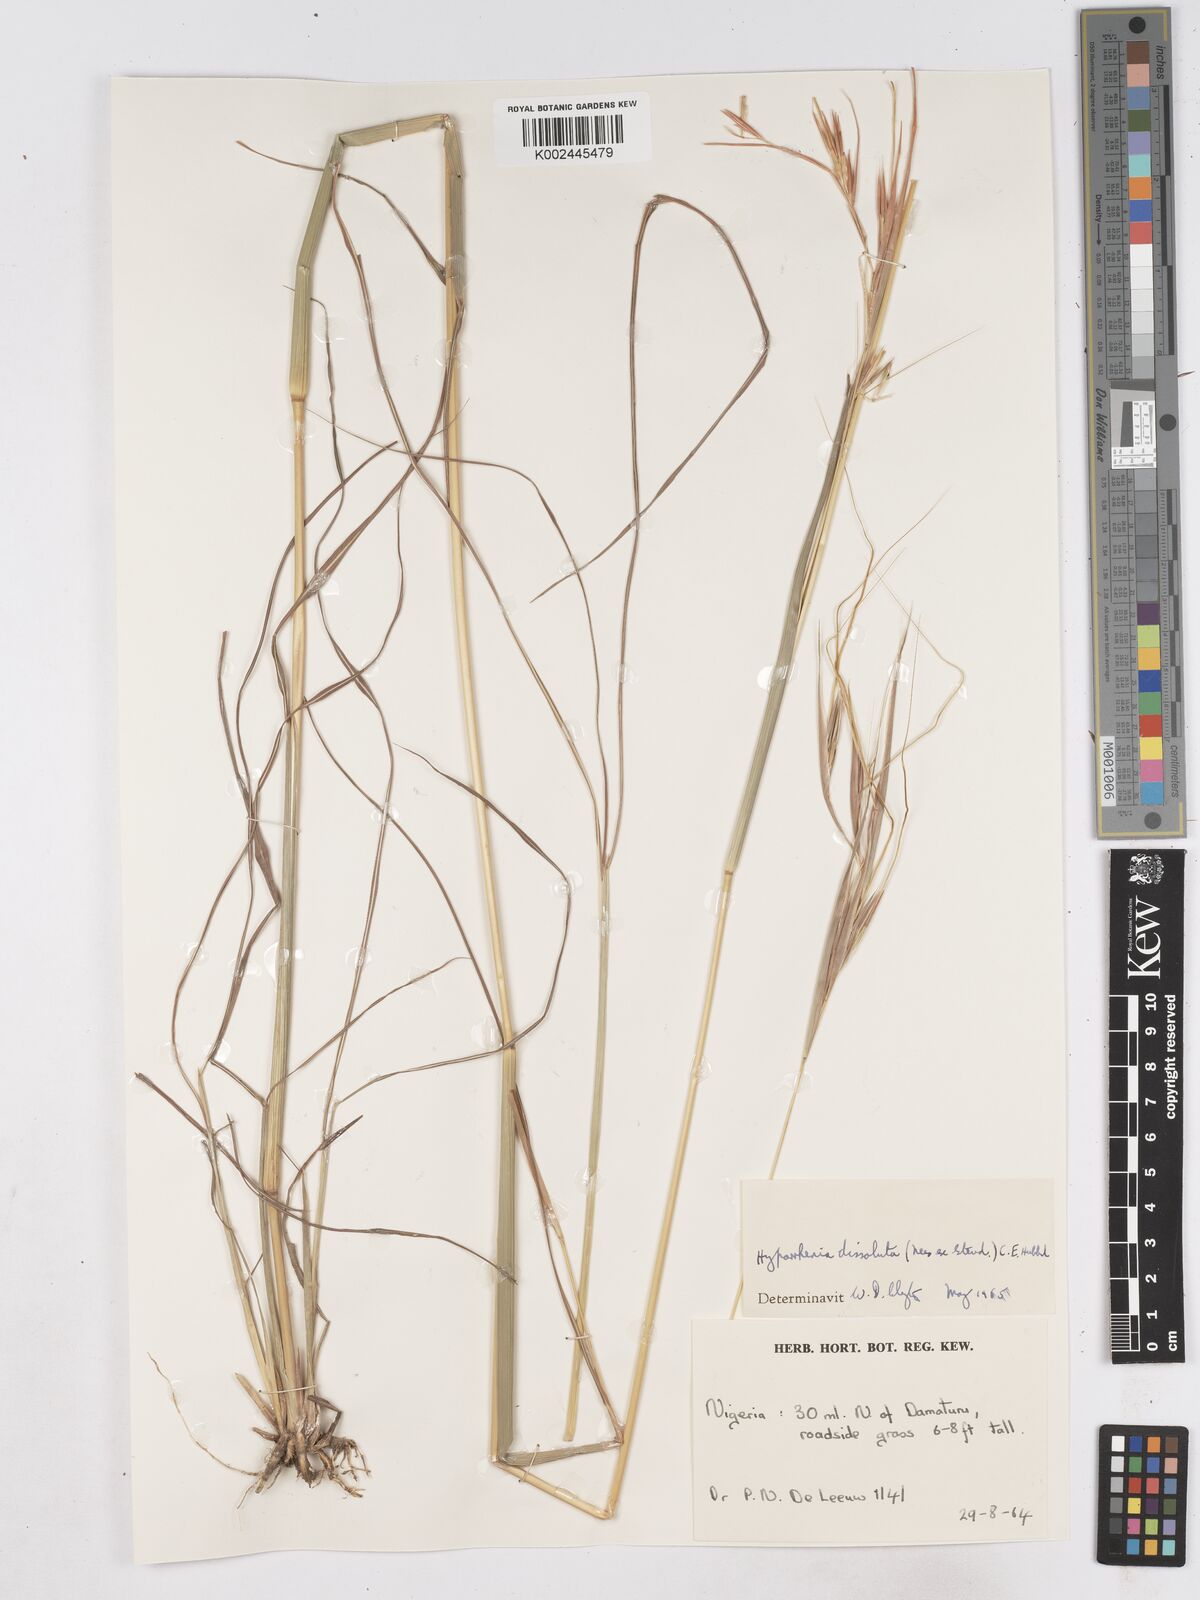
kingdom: Plantae
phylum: Tracheophyta
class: Liliopsida
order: Poales
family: Poaceae
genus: Hyperthelia
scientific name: Hyperthelia dissoluta
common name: Yellow thatching grass
